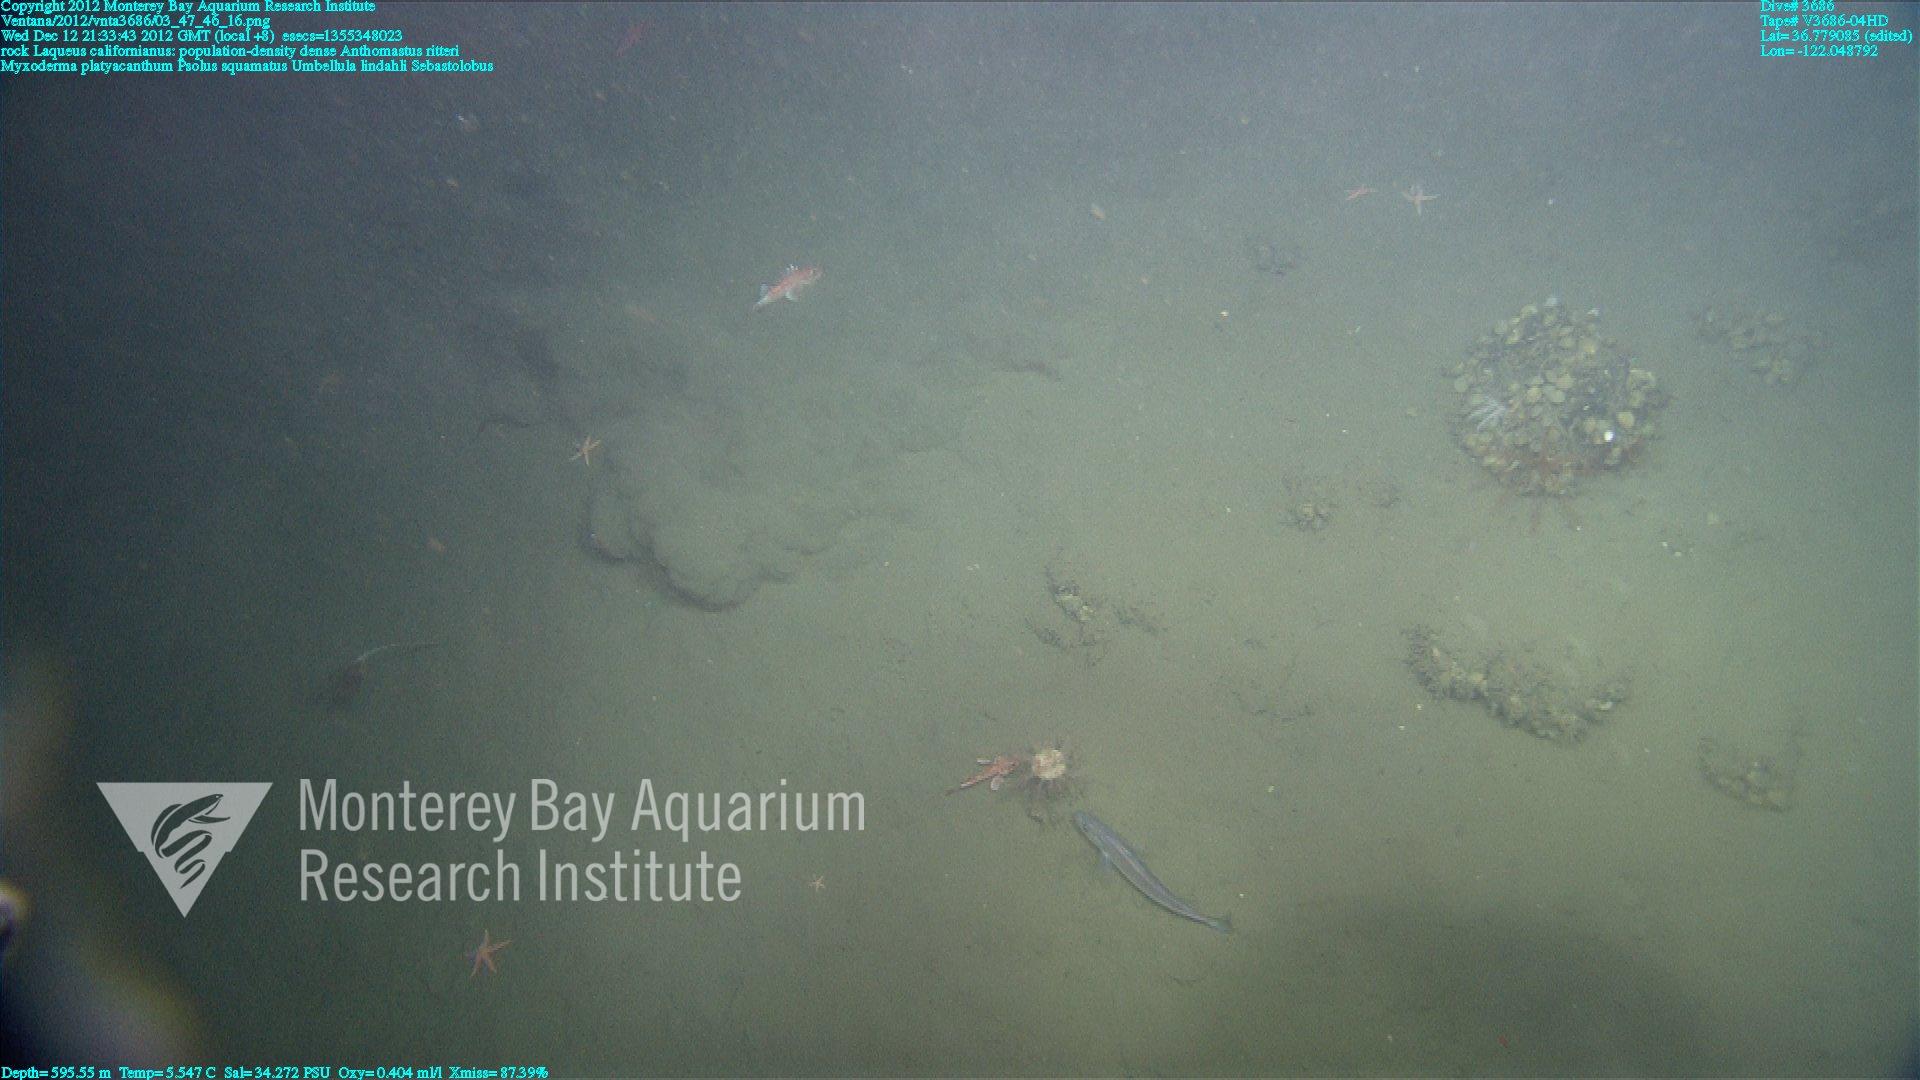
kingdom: Animalia
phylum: Cnidaria
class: Anthozoa
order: Scleralcyonacea
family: Umbellulidae
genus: Umbellula
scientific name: Umbellula lindahli
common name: Lindahl's droopy sea pen
